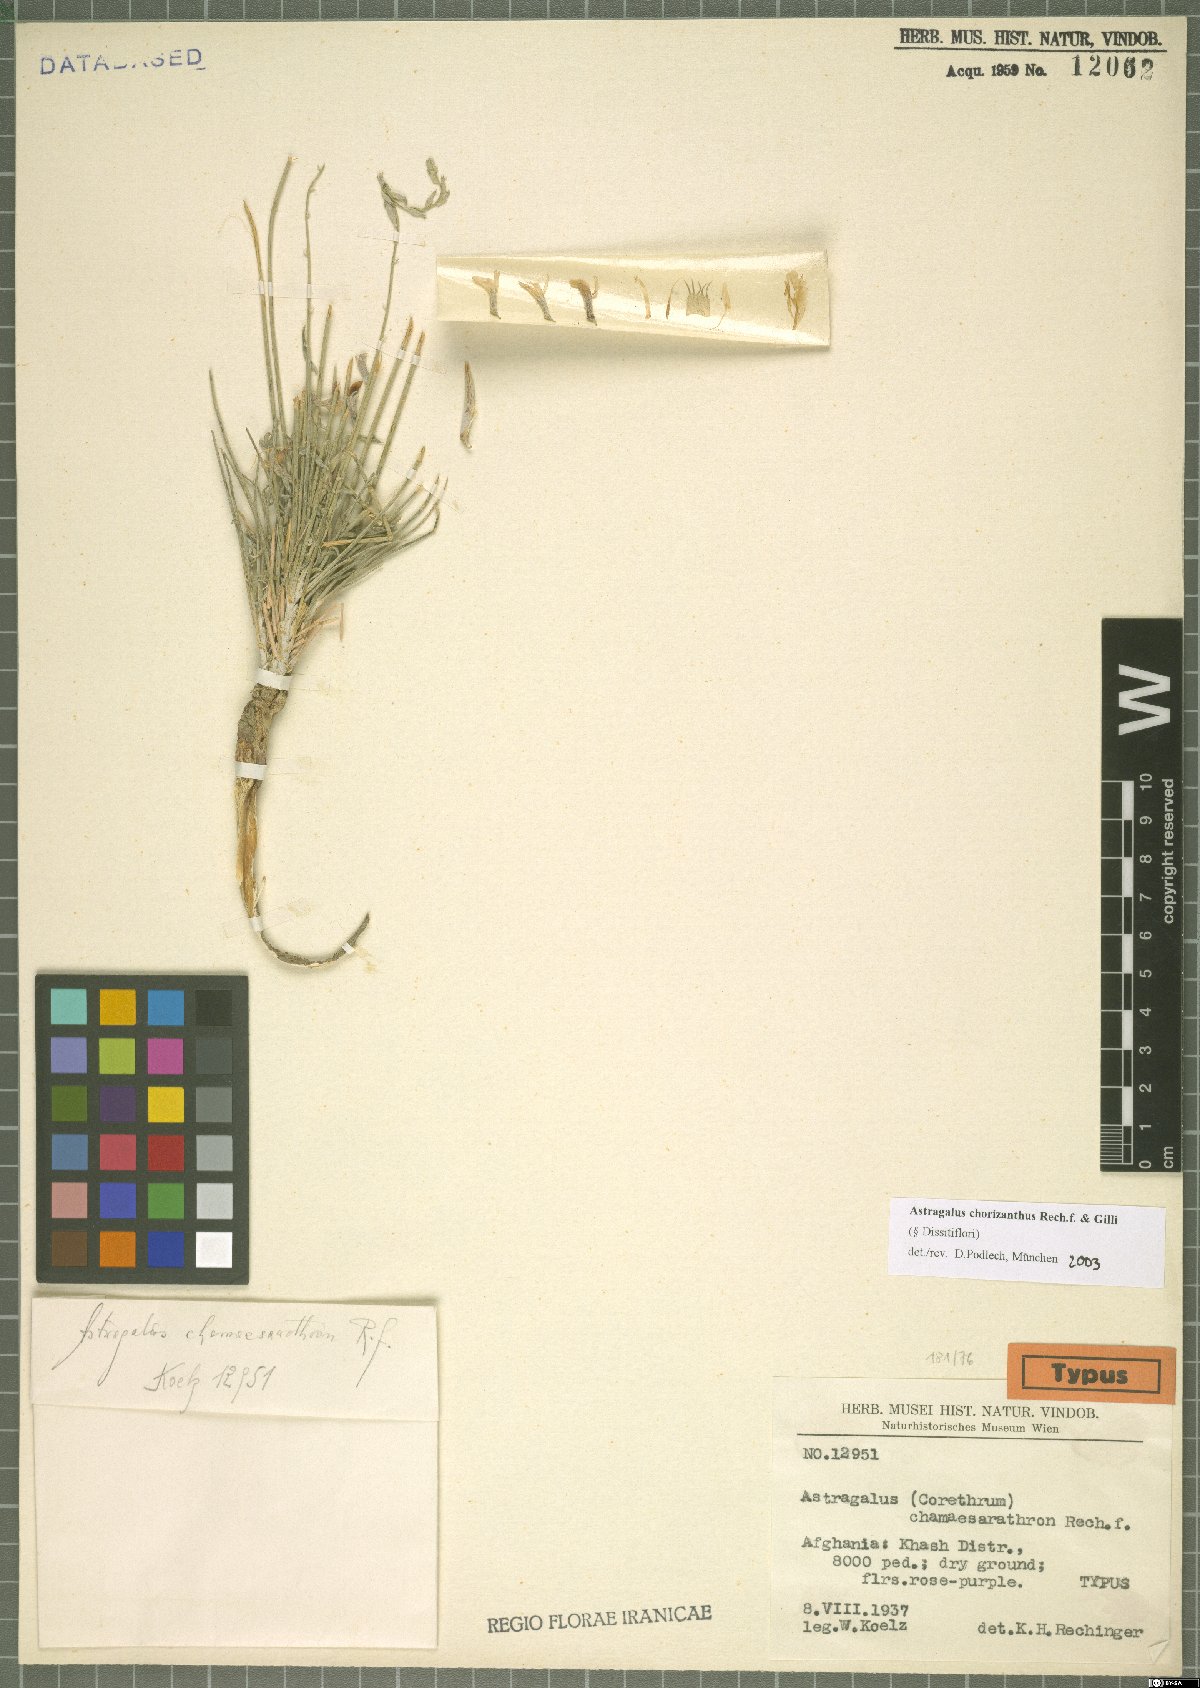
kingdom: Plantae
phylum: Tracheophyta
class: Magnoliopsida
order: Fabales
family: Fabaceae
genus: Astragalus
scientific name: Astragalus chorizanthus
